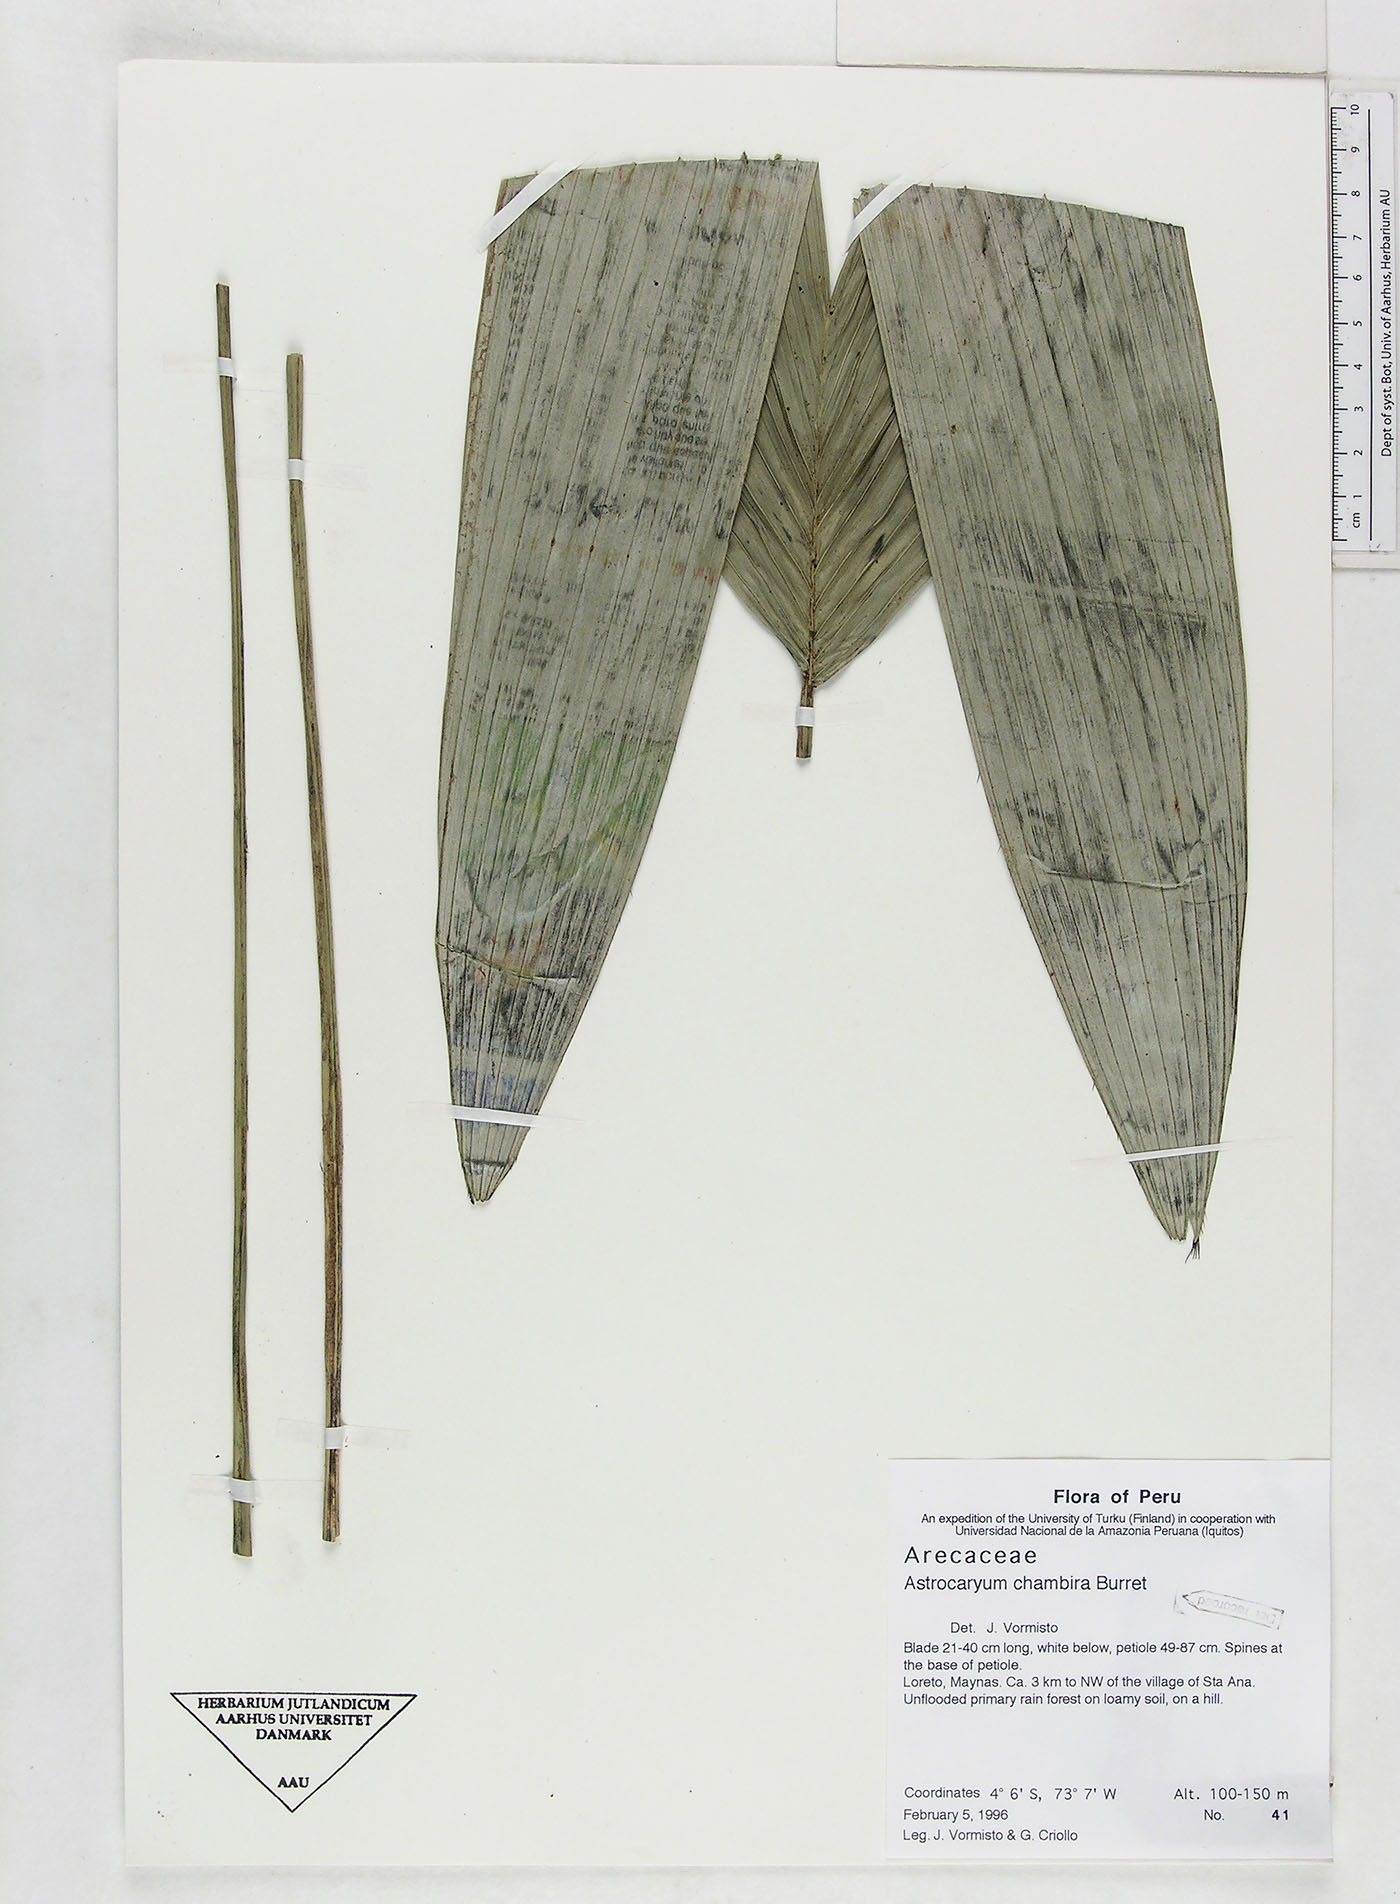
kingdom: Plantae
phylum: Tracheophyta
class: Liliopsida
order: Arecales
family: Arecaceae
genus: Astrocaryum
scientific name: Astrocaryum chambira
